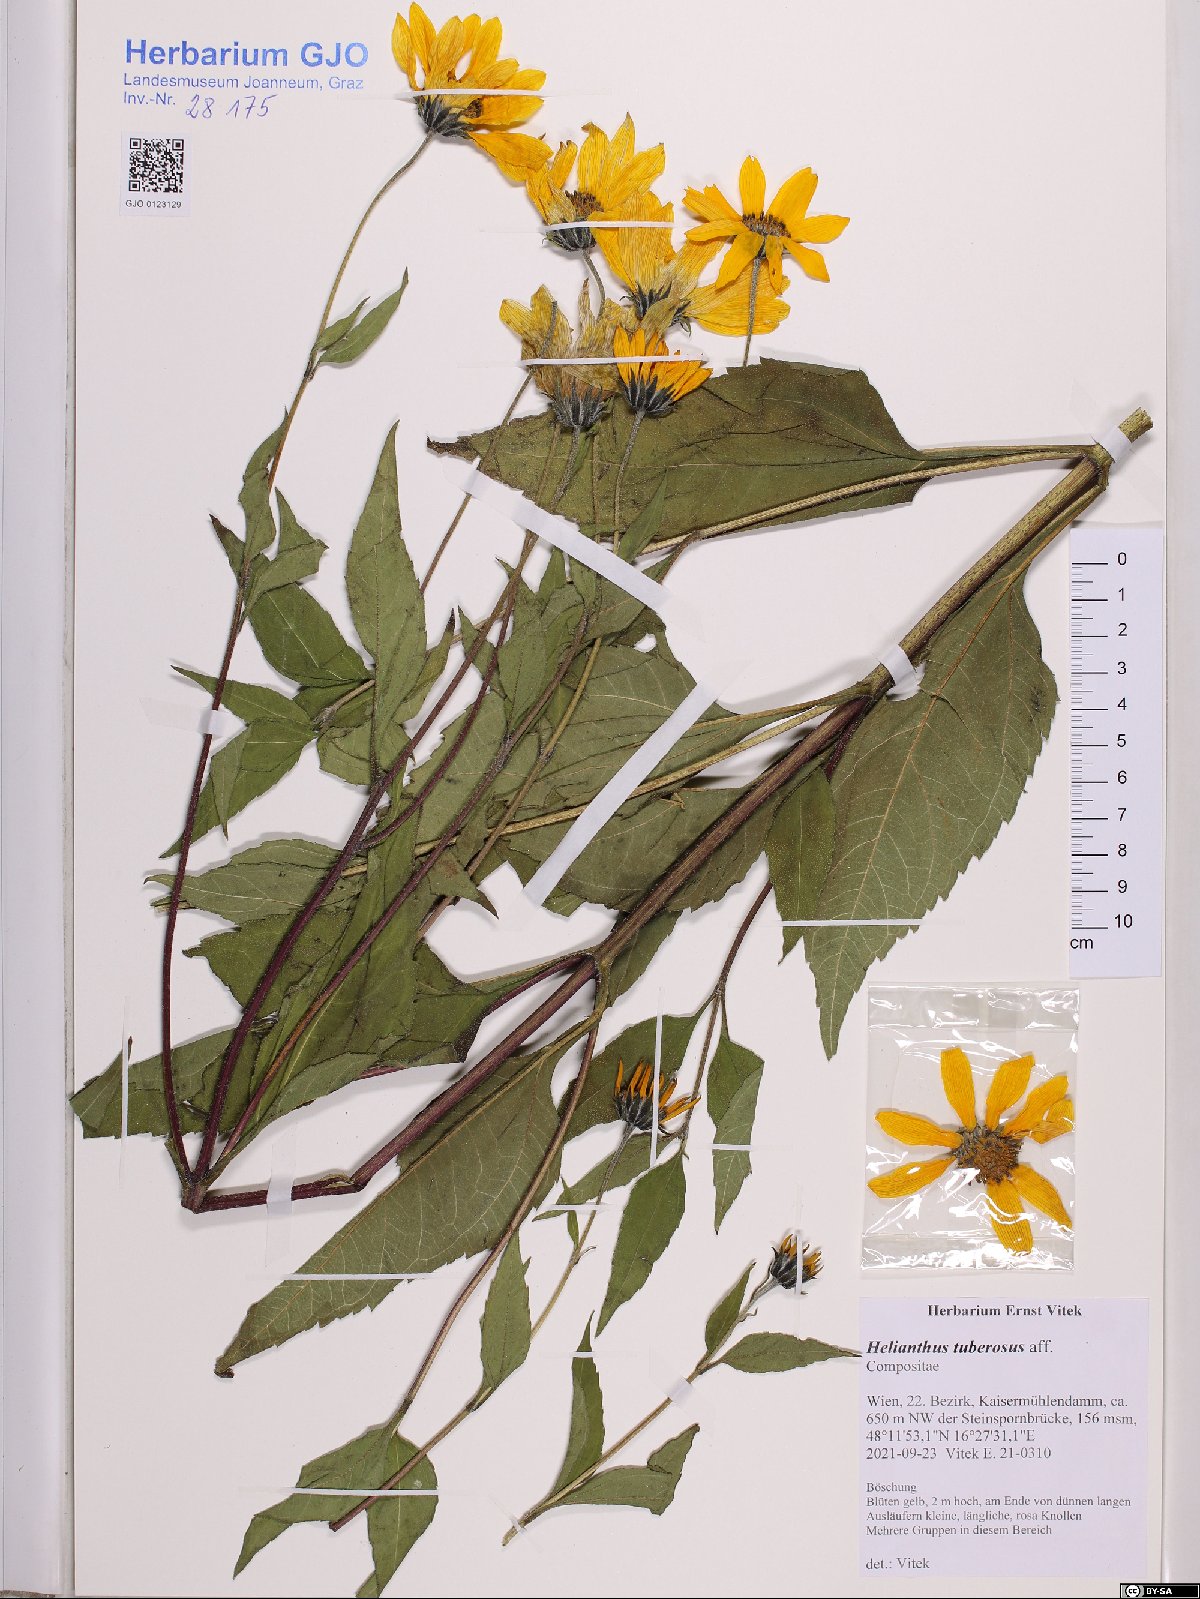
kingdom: Plantae
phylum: Tracheophyta
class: Magnoliopsida
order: Asterales
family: Asteraceae
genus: Helianthus
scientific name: Helianthus tuberosus
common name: Jerusalem artichoke
